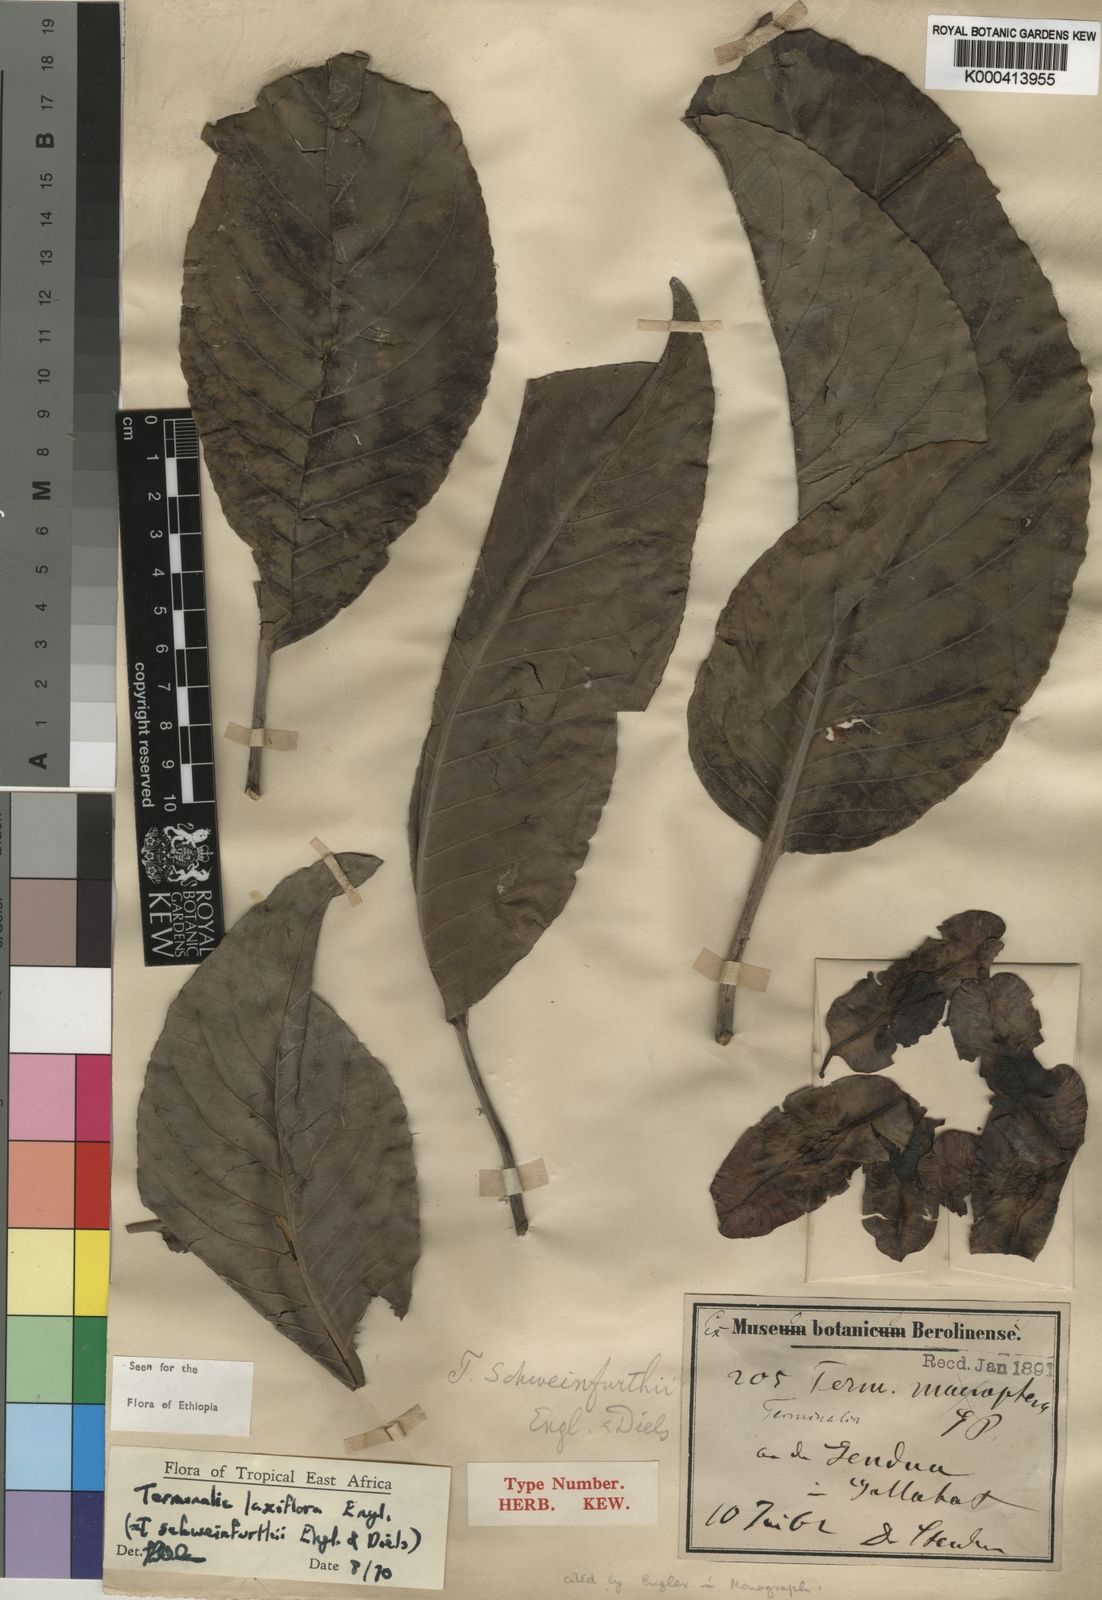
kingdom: Plantae
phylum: Tracheophyta
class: Magnoliopsida
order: Myrtales
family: Combretaceae
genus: Terminalia
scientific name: Terminalia laxiflora
